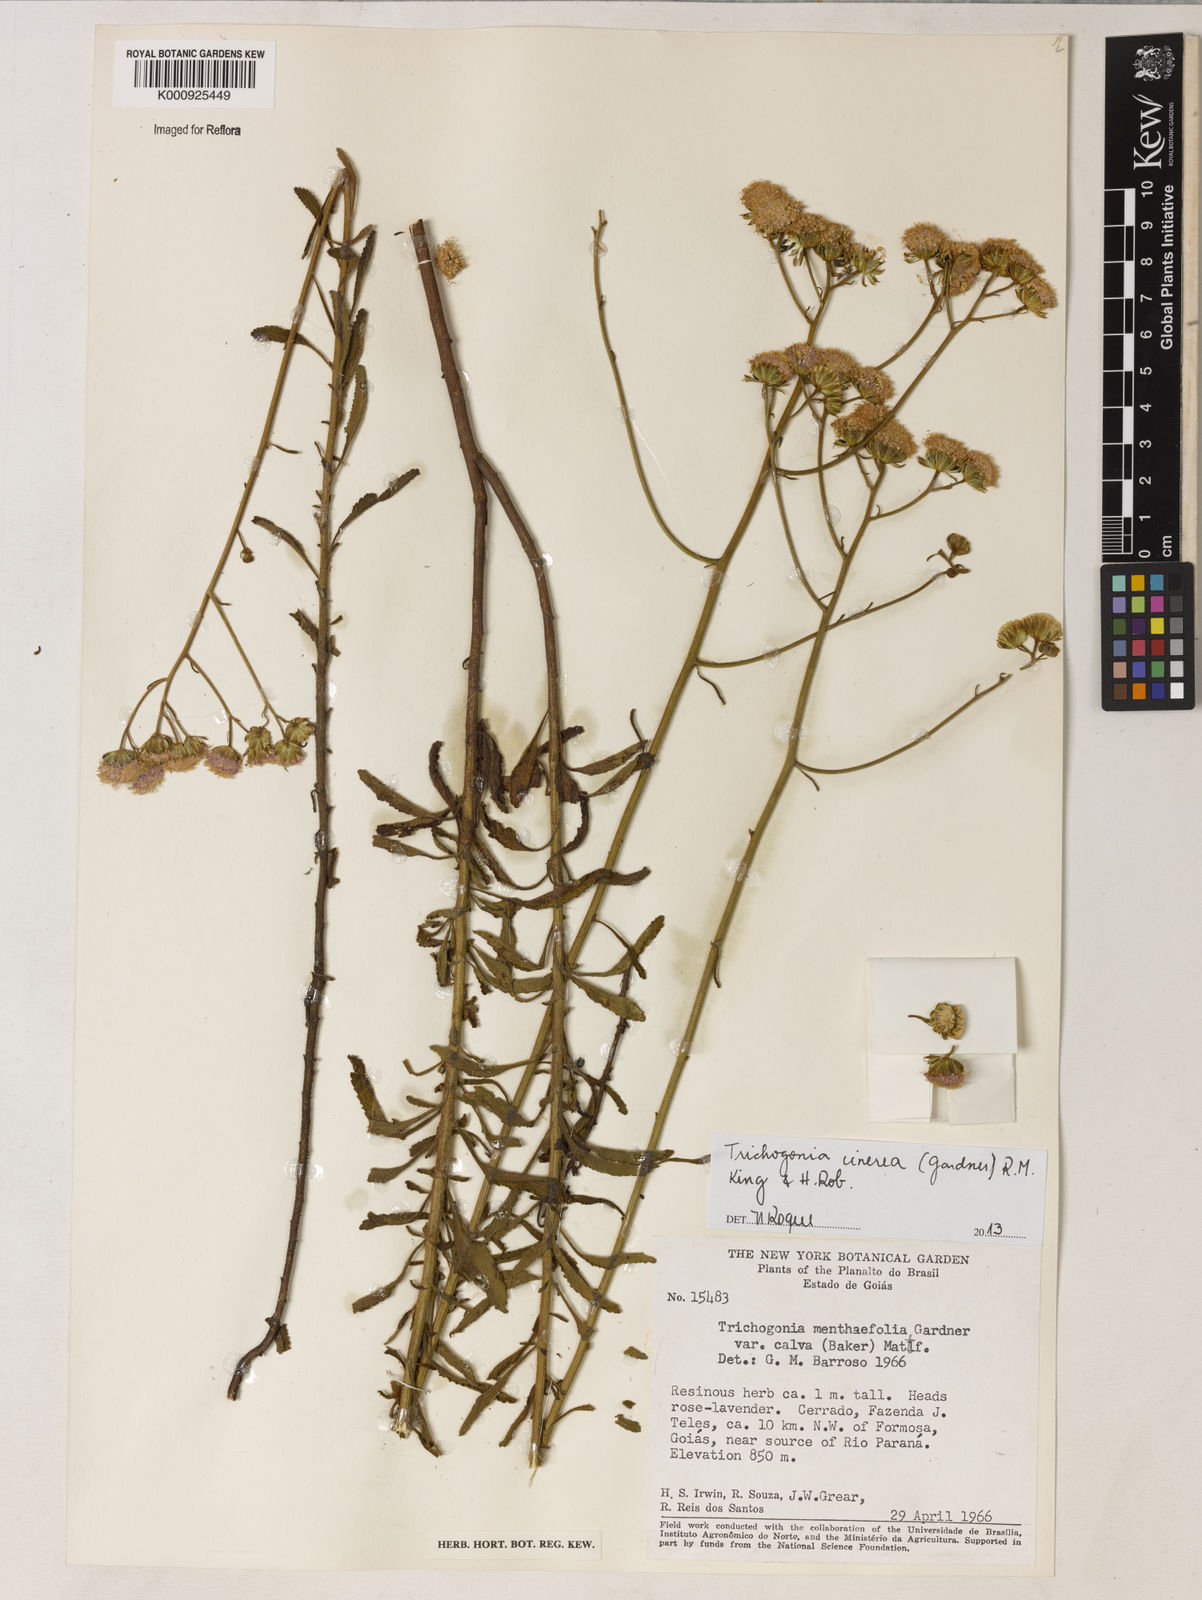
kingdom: Plantae
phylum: Tracheophyta
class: Magnoliopsida
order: Asterales
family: Asteraceae
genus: Trichogonia
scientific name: Trichogonia cinerea
